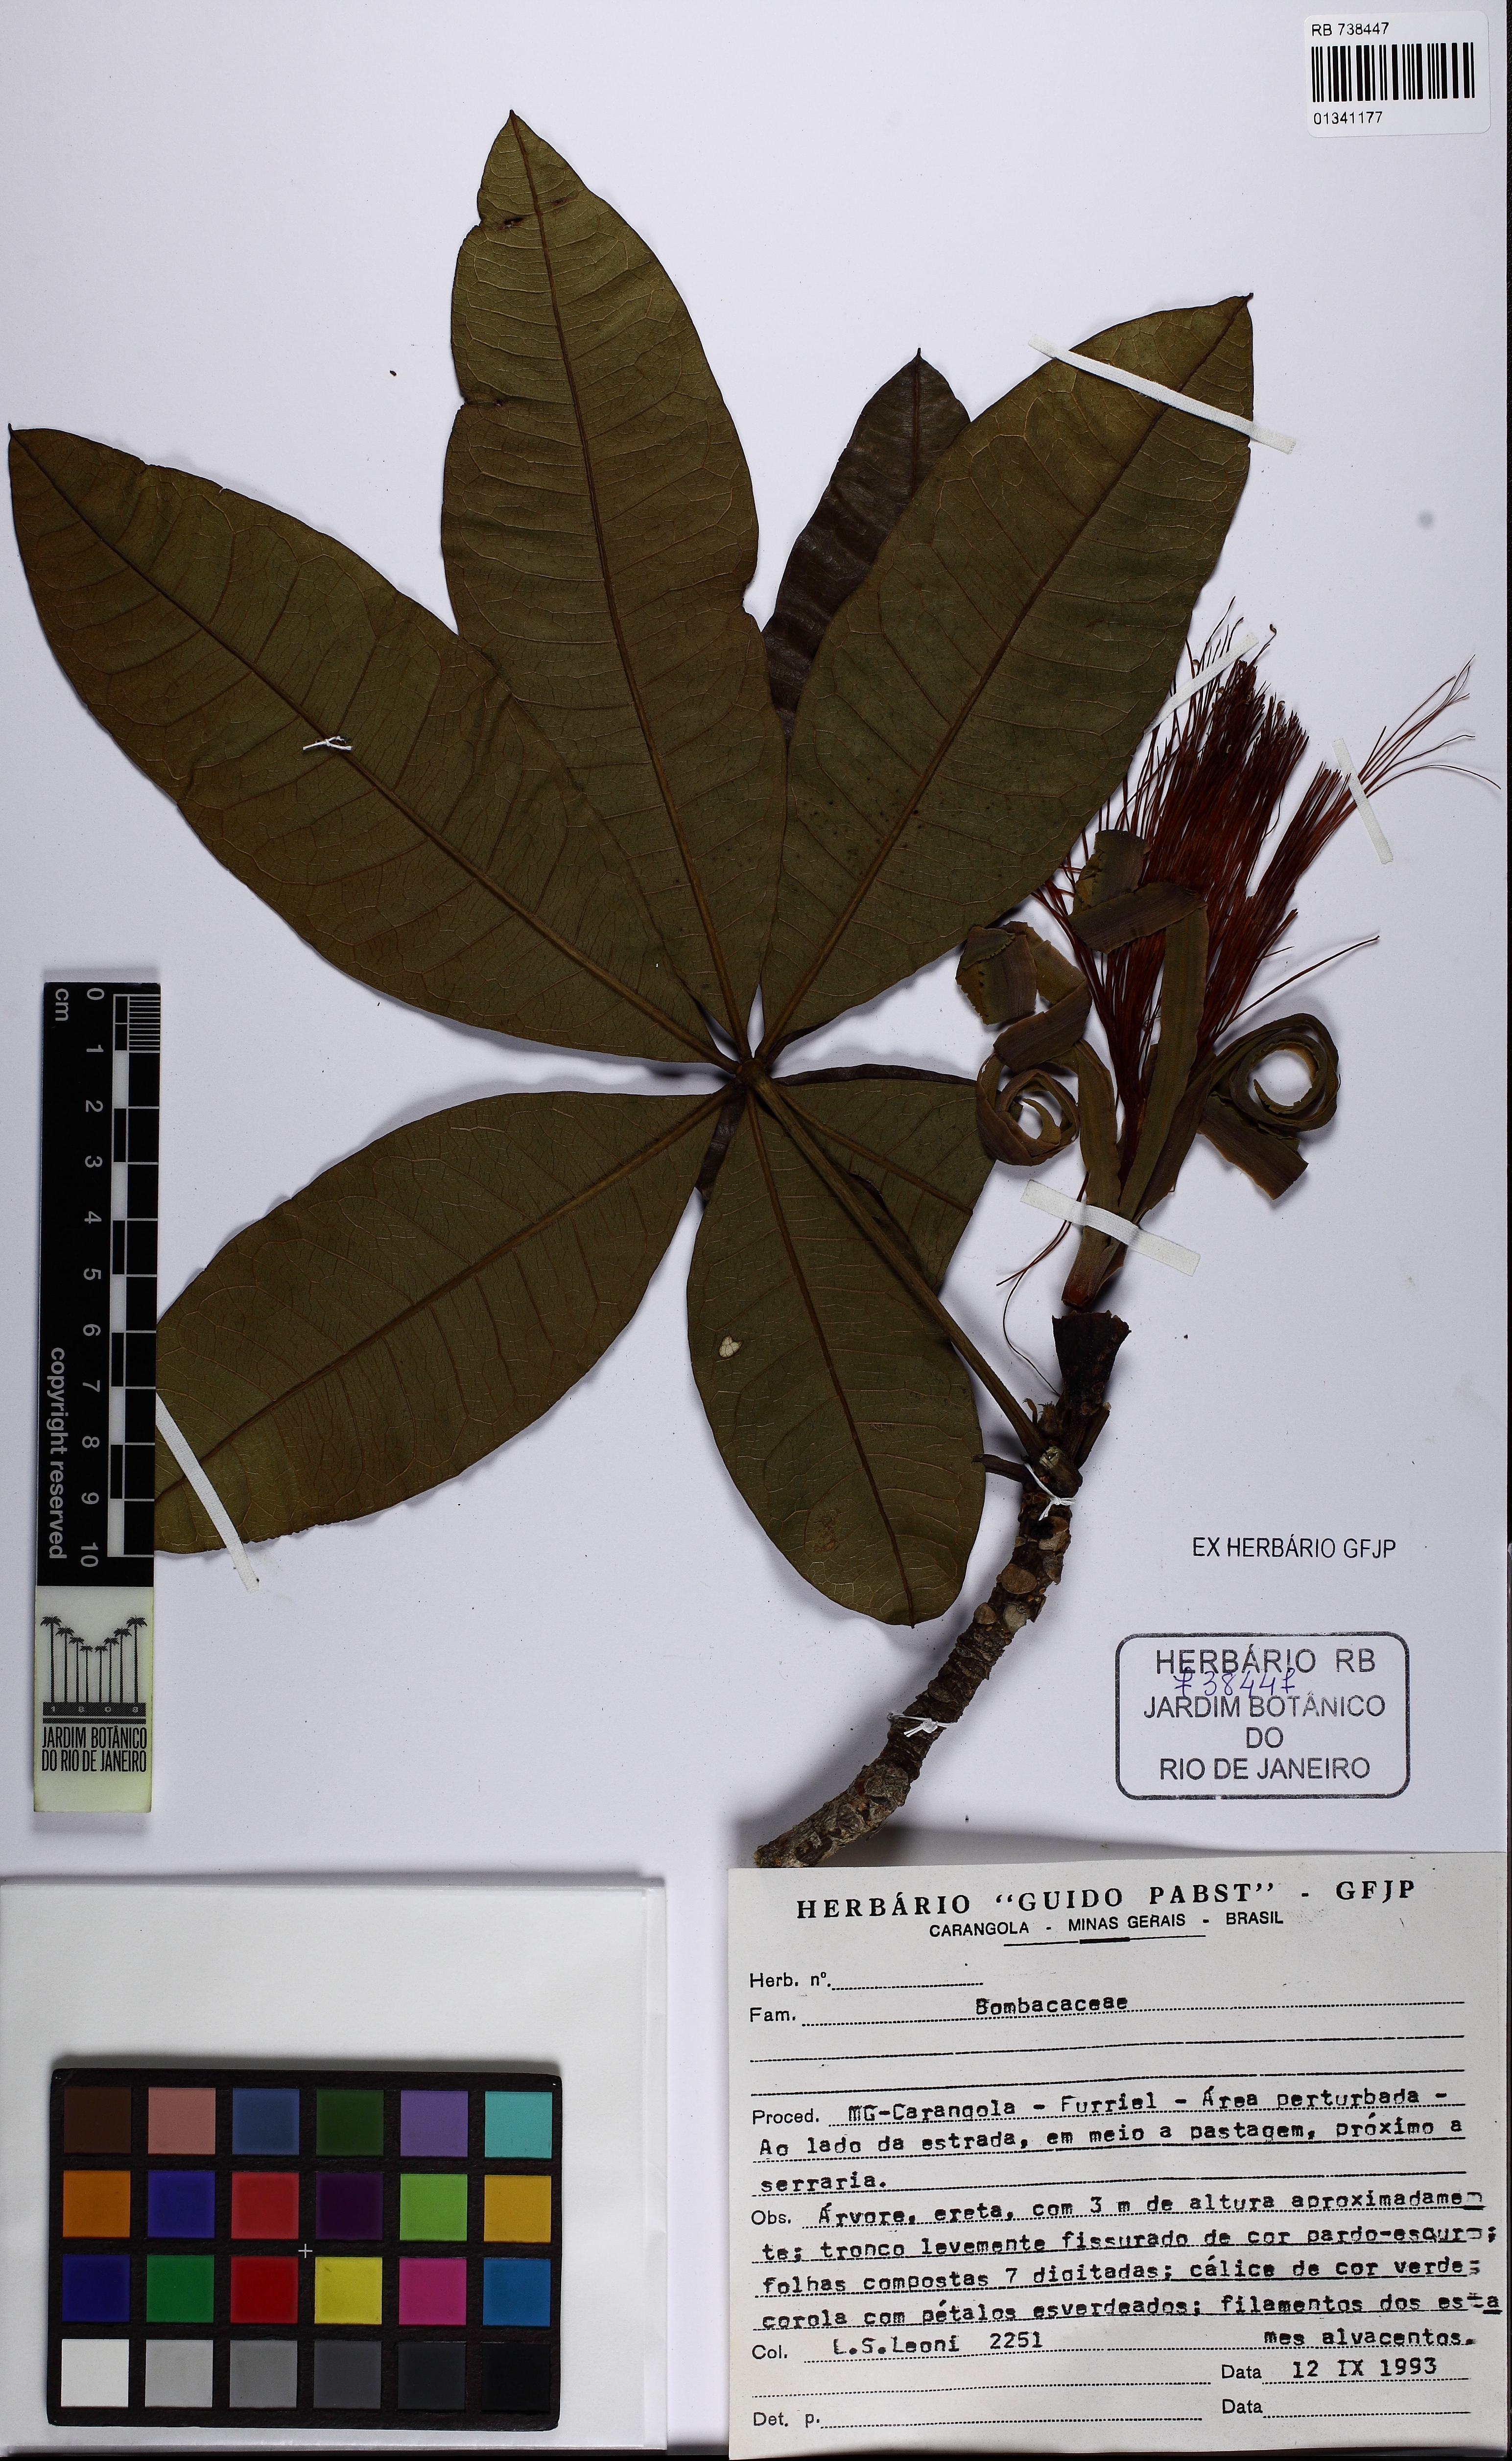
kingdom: Plantae
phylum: Tracheophyta
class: Magnoliopsida
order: Malvales
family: Malvaceae
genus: Pachira
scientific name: Pachira glabra
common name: Moneytree
